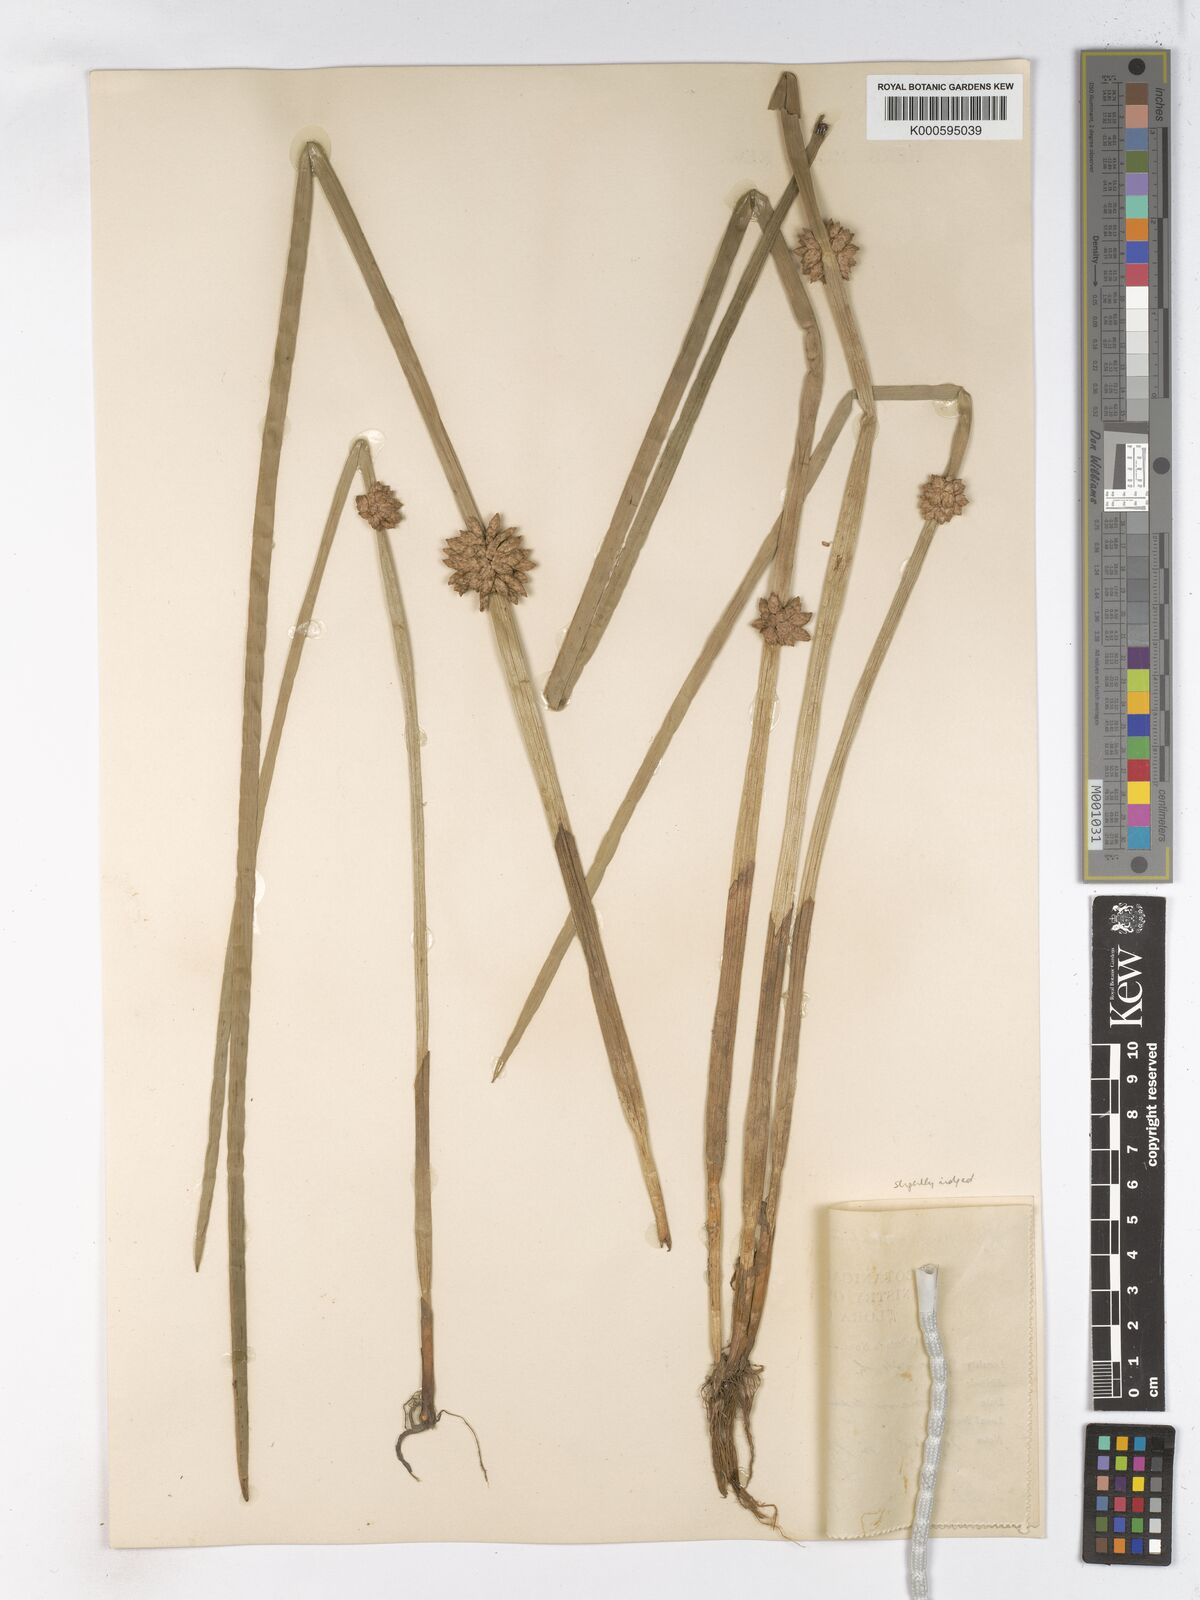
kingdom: Plantae
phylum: Tracheophyta
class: Liliopsida
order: Poales
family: Cyperaceae
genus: Schoenoplectiella
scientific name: Schoenoplectiella articulata
